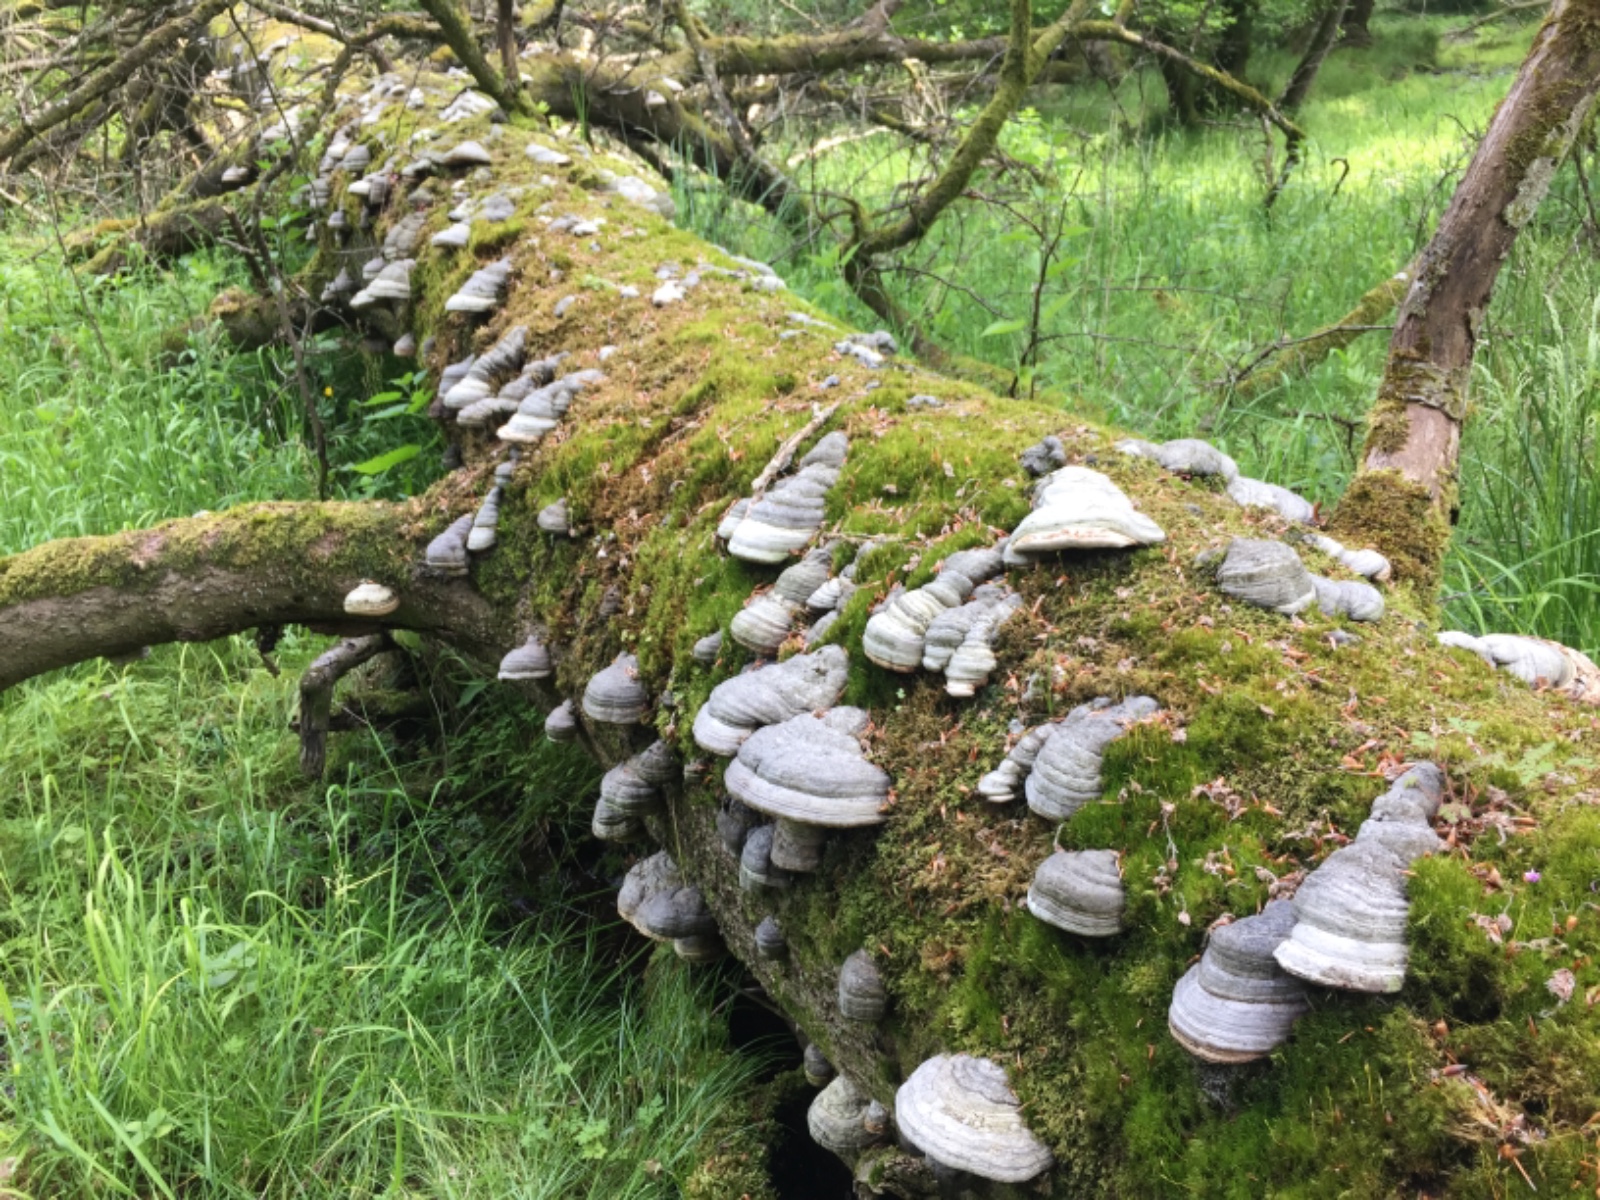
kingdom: Fungi
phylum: Basidiomycota
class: Agaricomycetes
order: Polyporales
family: Polyporaceae
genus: Fomes
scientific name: Fomes fomentarius
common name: tøndersvamp
